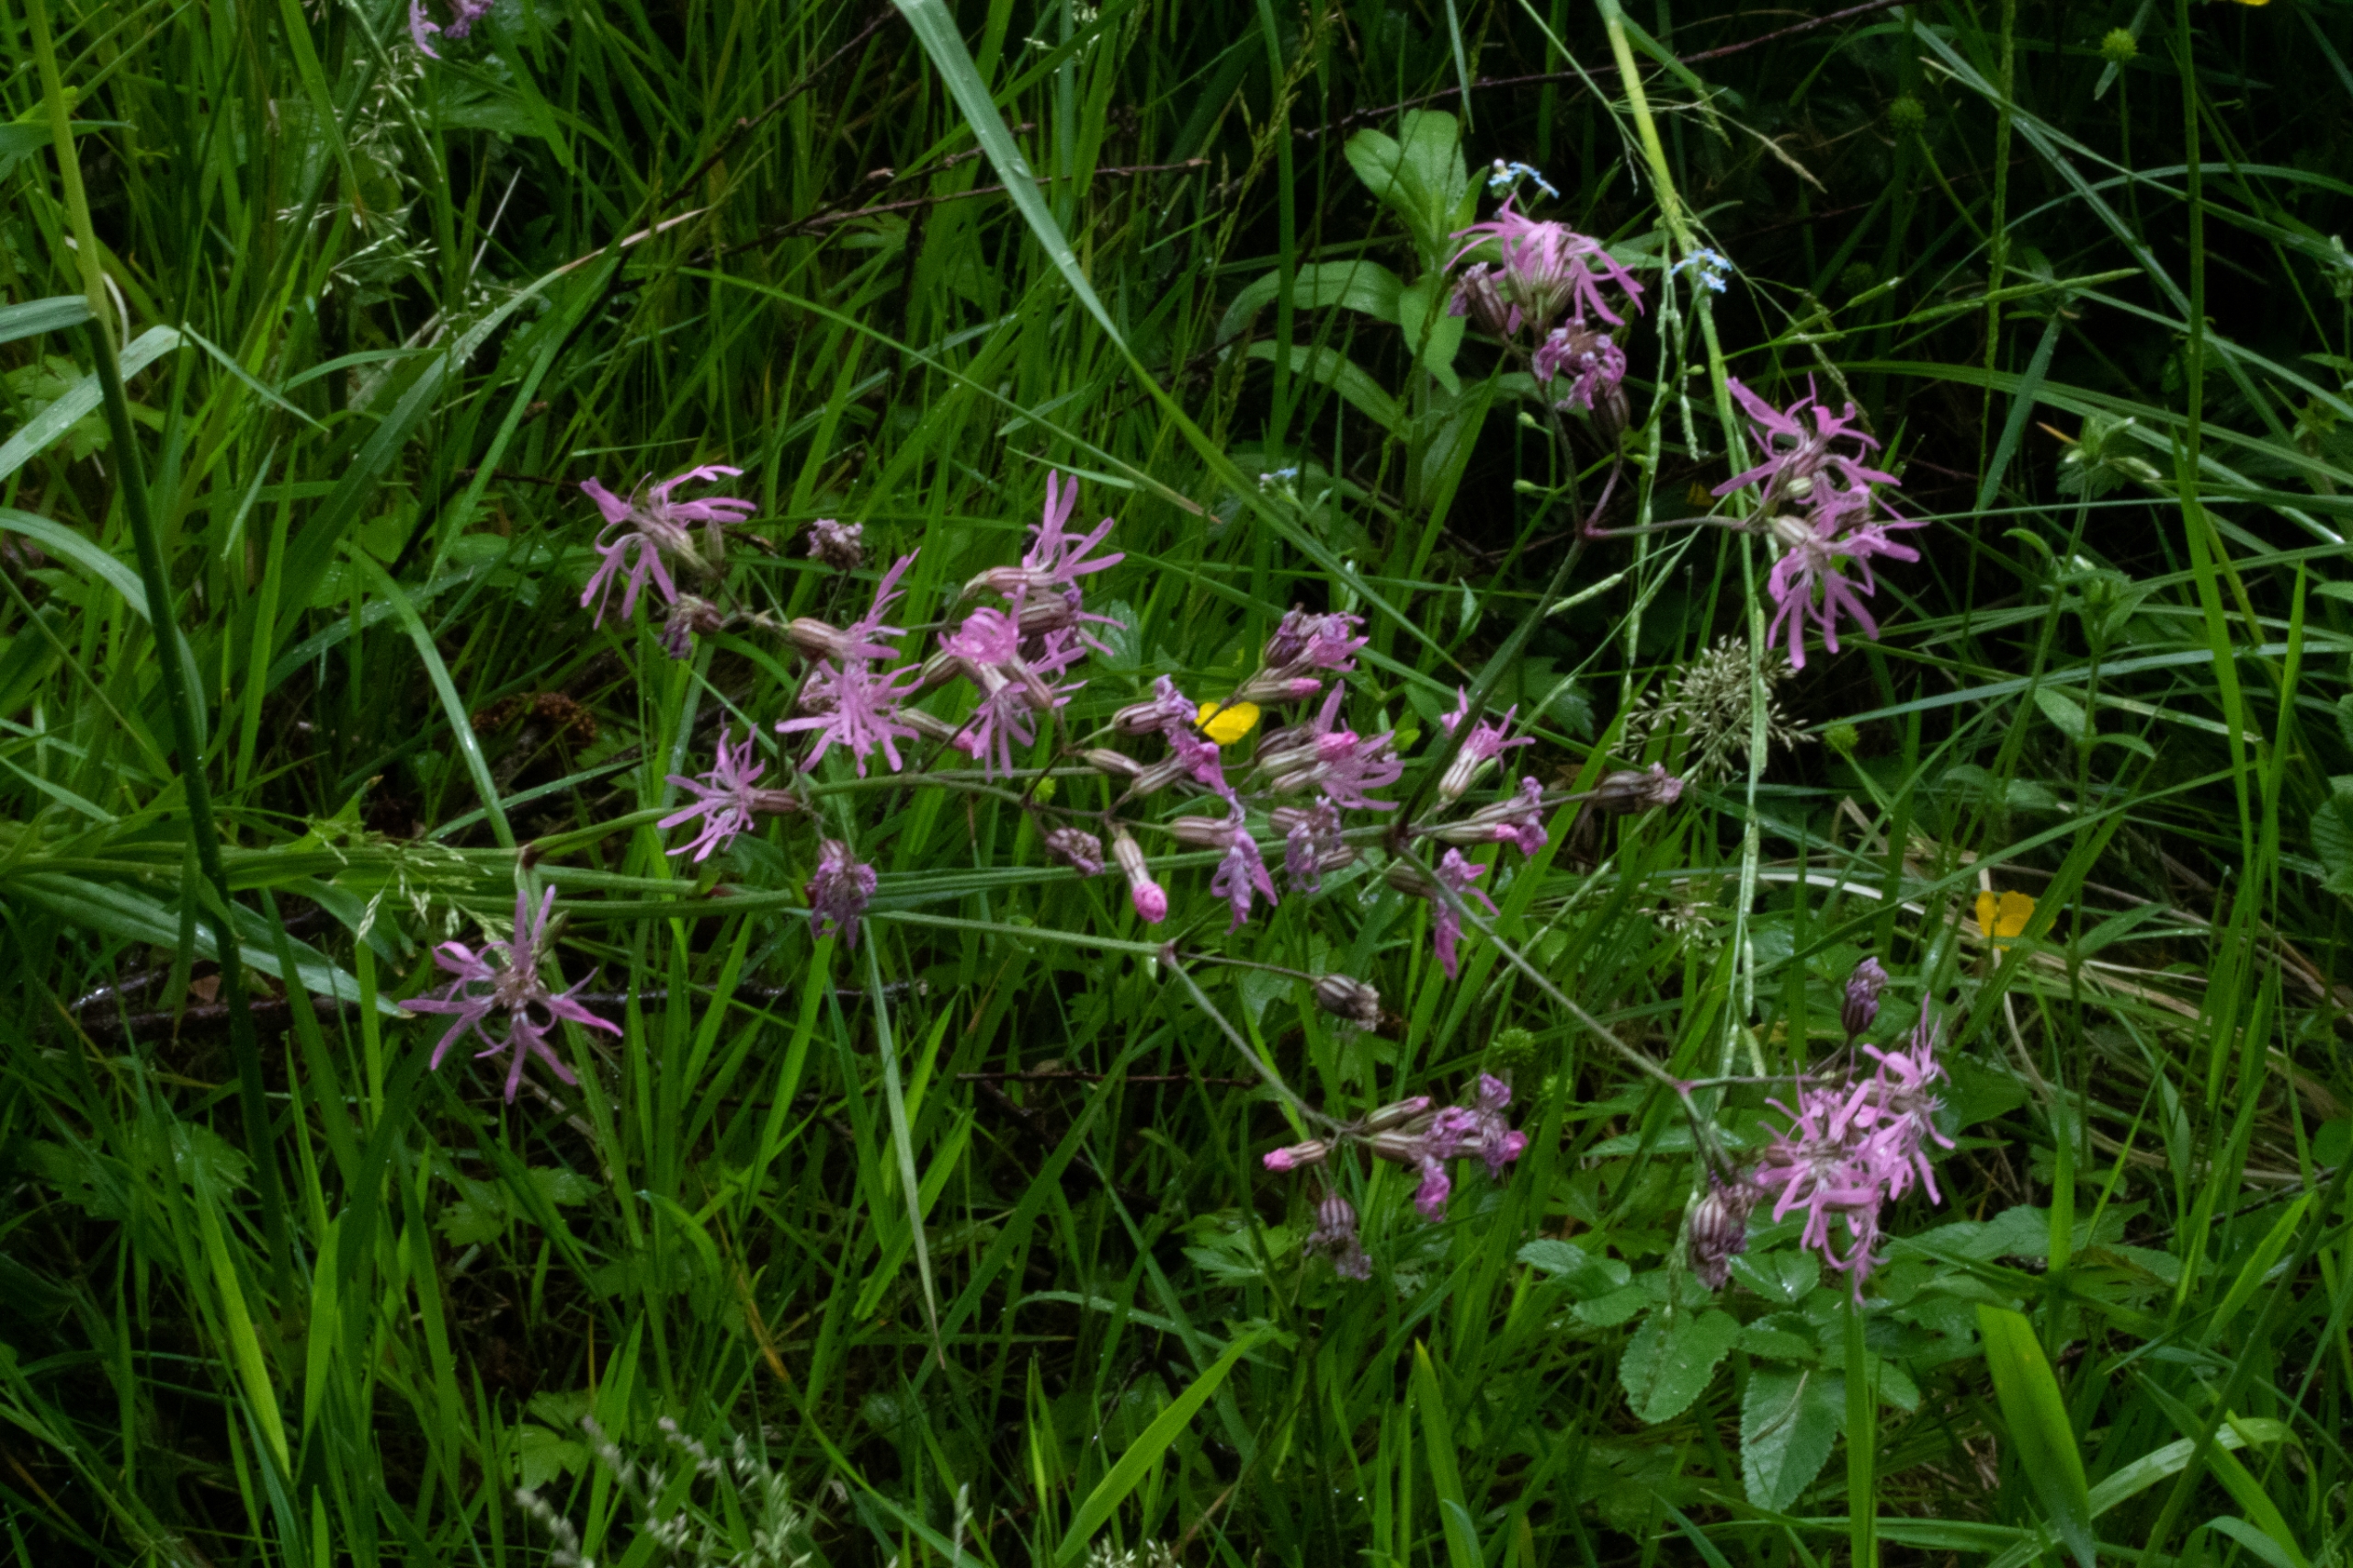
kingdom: Plantae
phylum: Tracheophyta
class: Magnoliopsida
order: Caryophyllales
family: Caryophyllaceae
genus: Silene
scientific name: Silene flos-cuculi
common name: Trævlekrone
